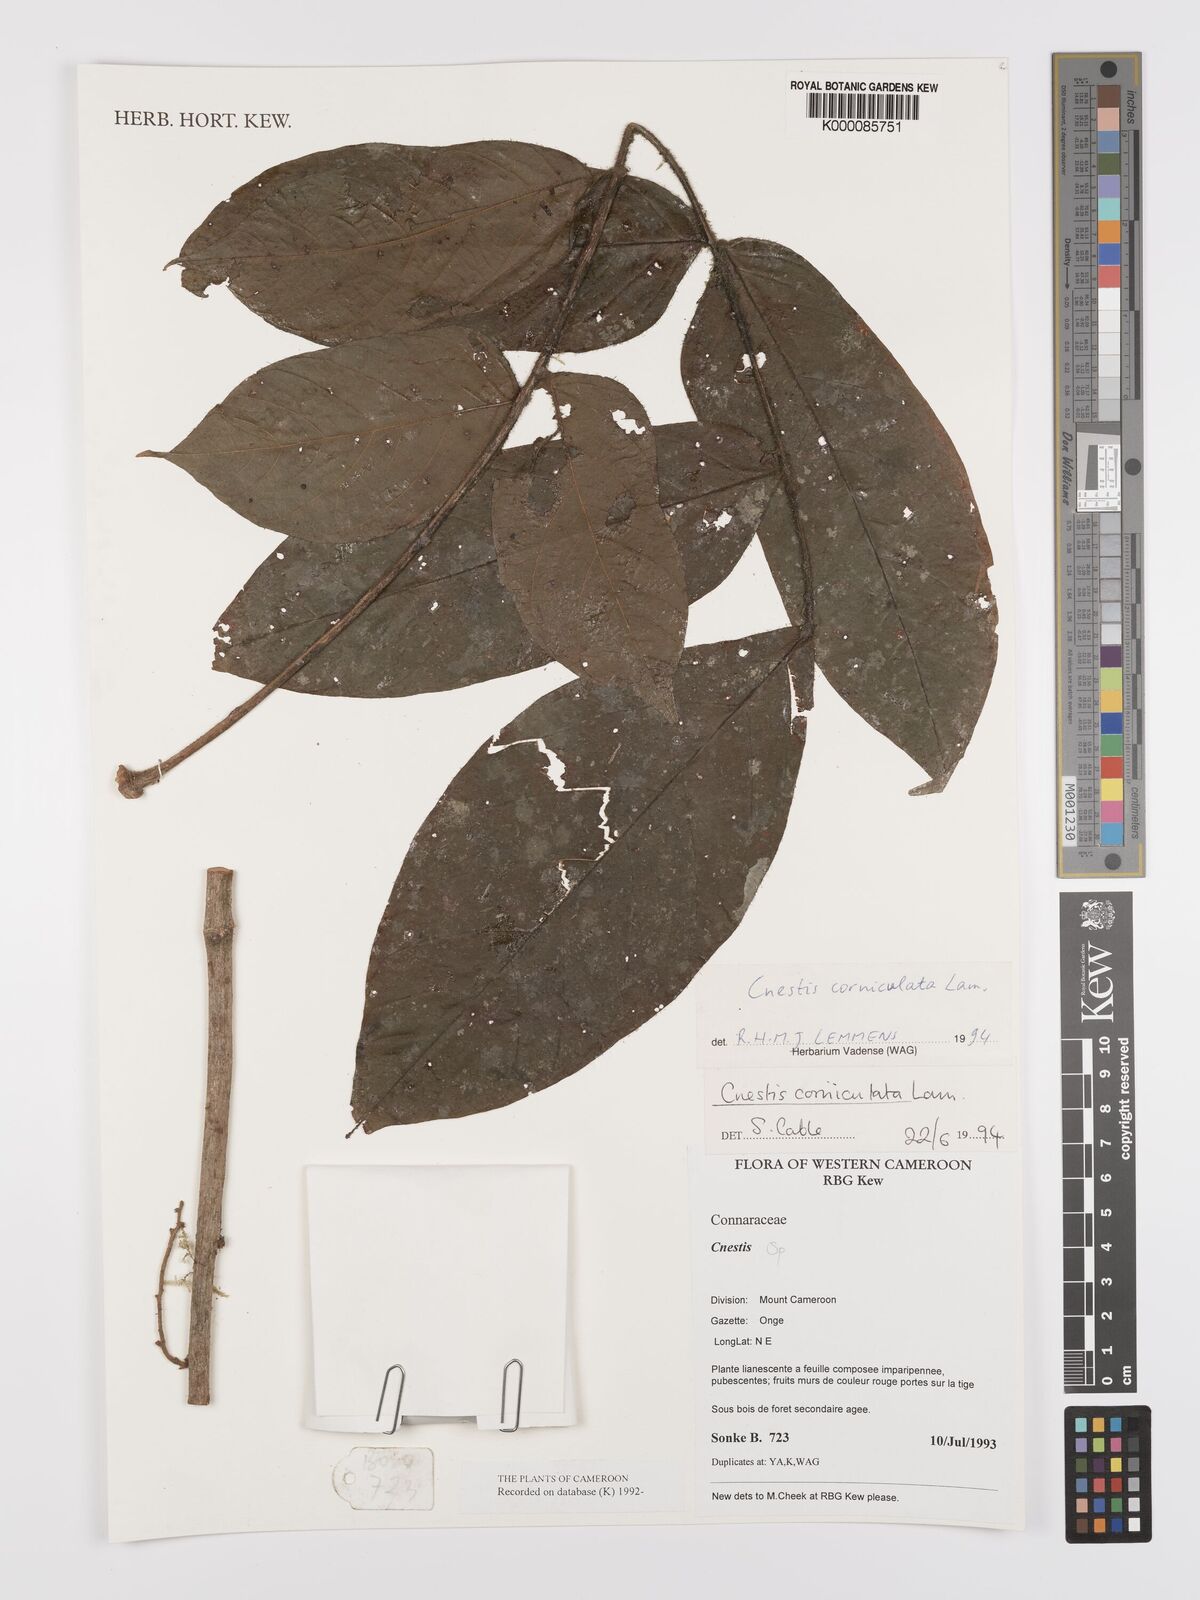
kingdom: Plantae
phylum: Tracheophyta
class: Magnoliopsida
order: Oxalidales
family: Connaraceae
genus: Cnestis
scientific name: Cnestis corniculata
